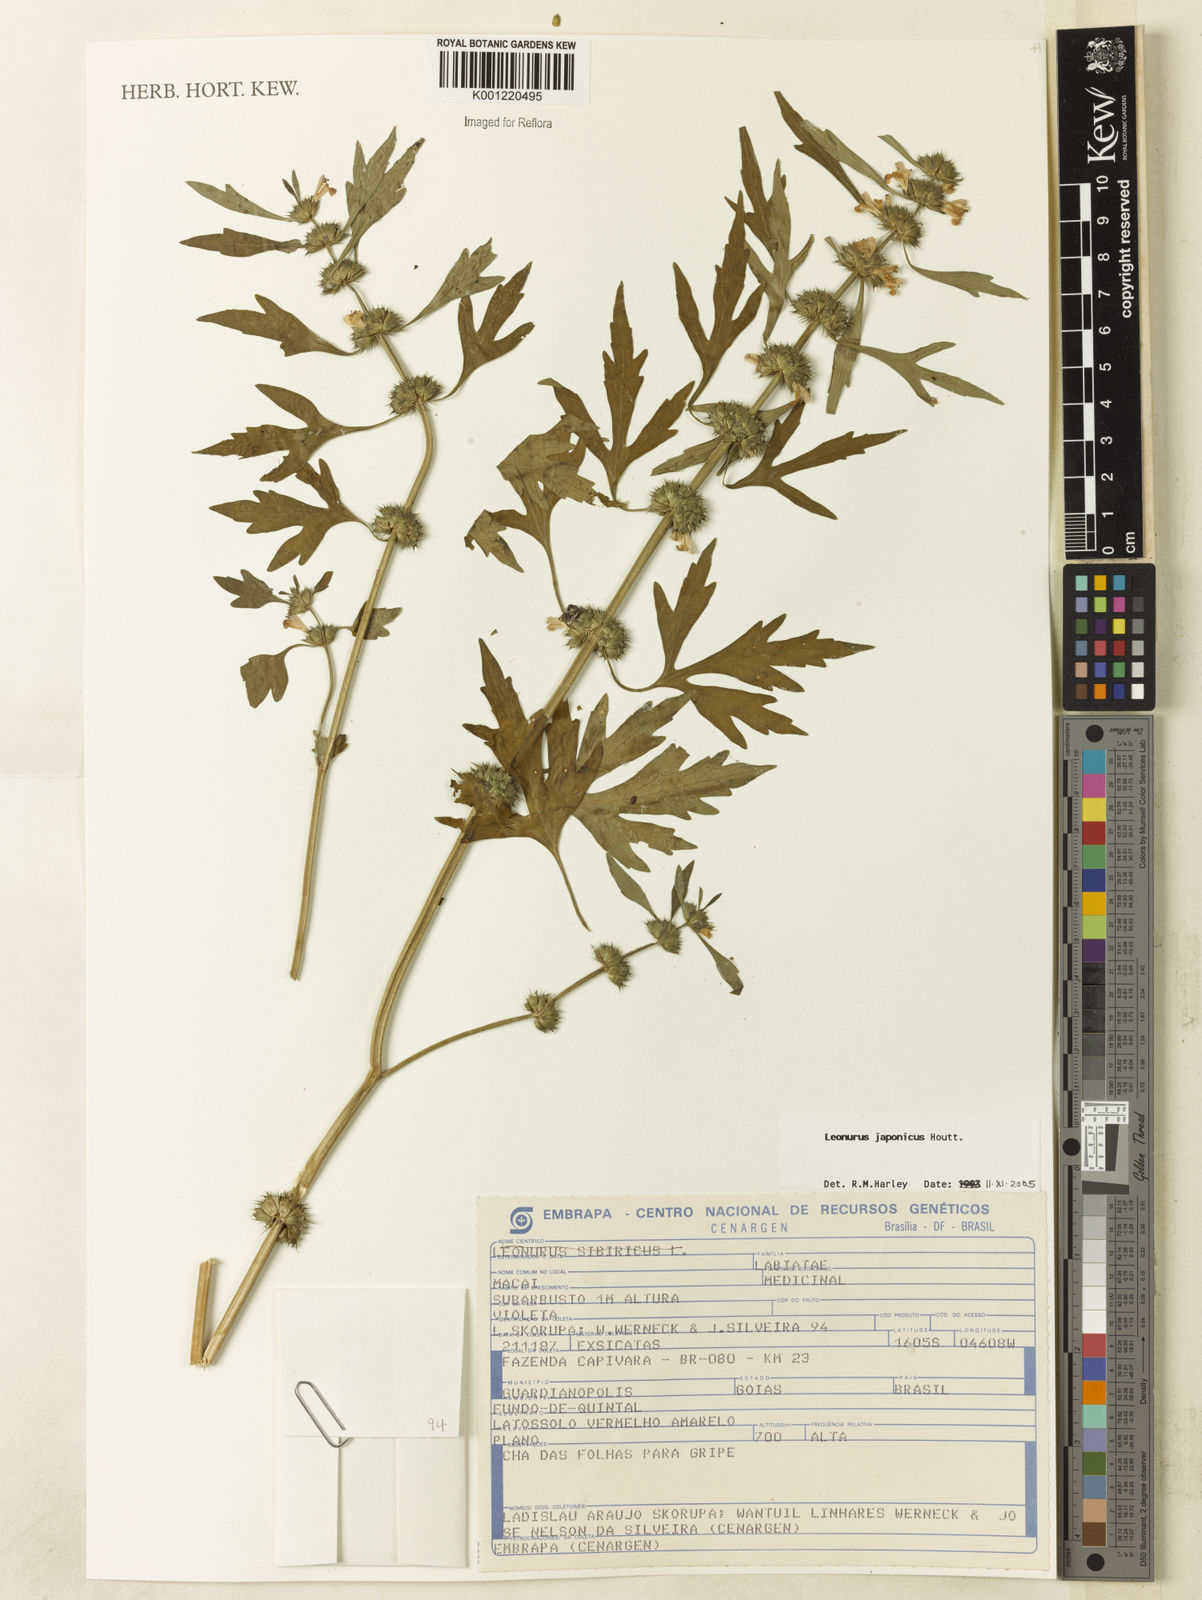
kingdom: Plantae
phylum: Tracheophyta
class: Magnoliopsida
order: Lamiales
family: Lamiaceae
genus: Leonurus
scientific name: Leonurus japonicus
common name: Honeyweed
